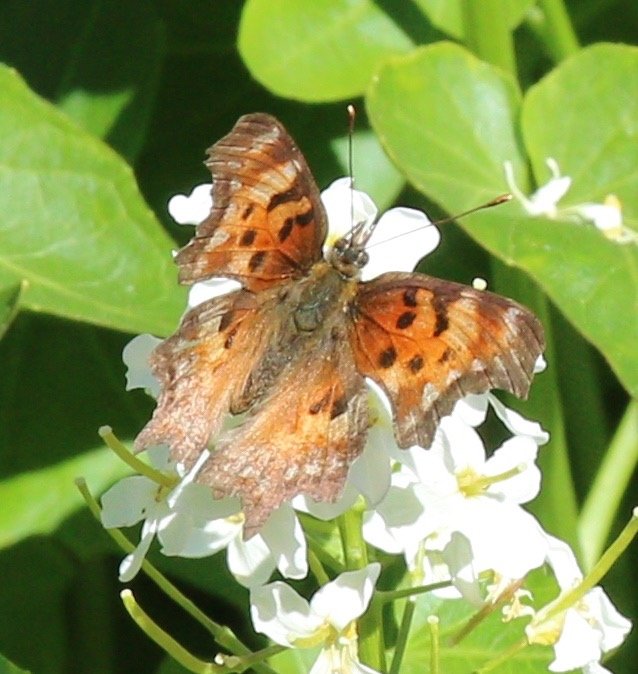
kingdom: Animalia
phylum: Arthropoda
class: Insecta
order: Lepidoptera
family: Nymphalidae
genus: Polygonia
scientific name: Polygonia gracilis
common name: Hoary Comma
